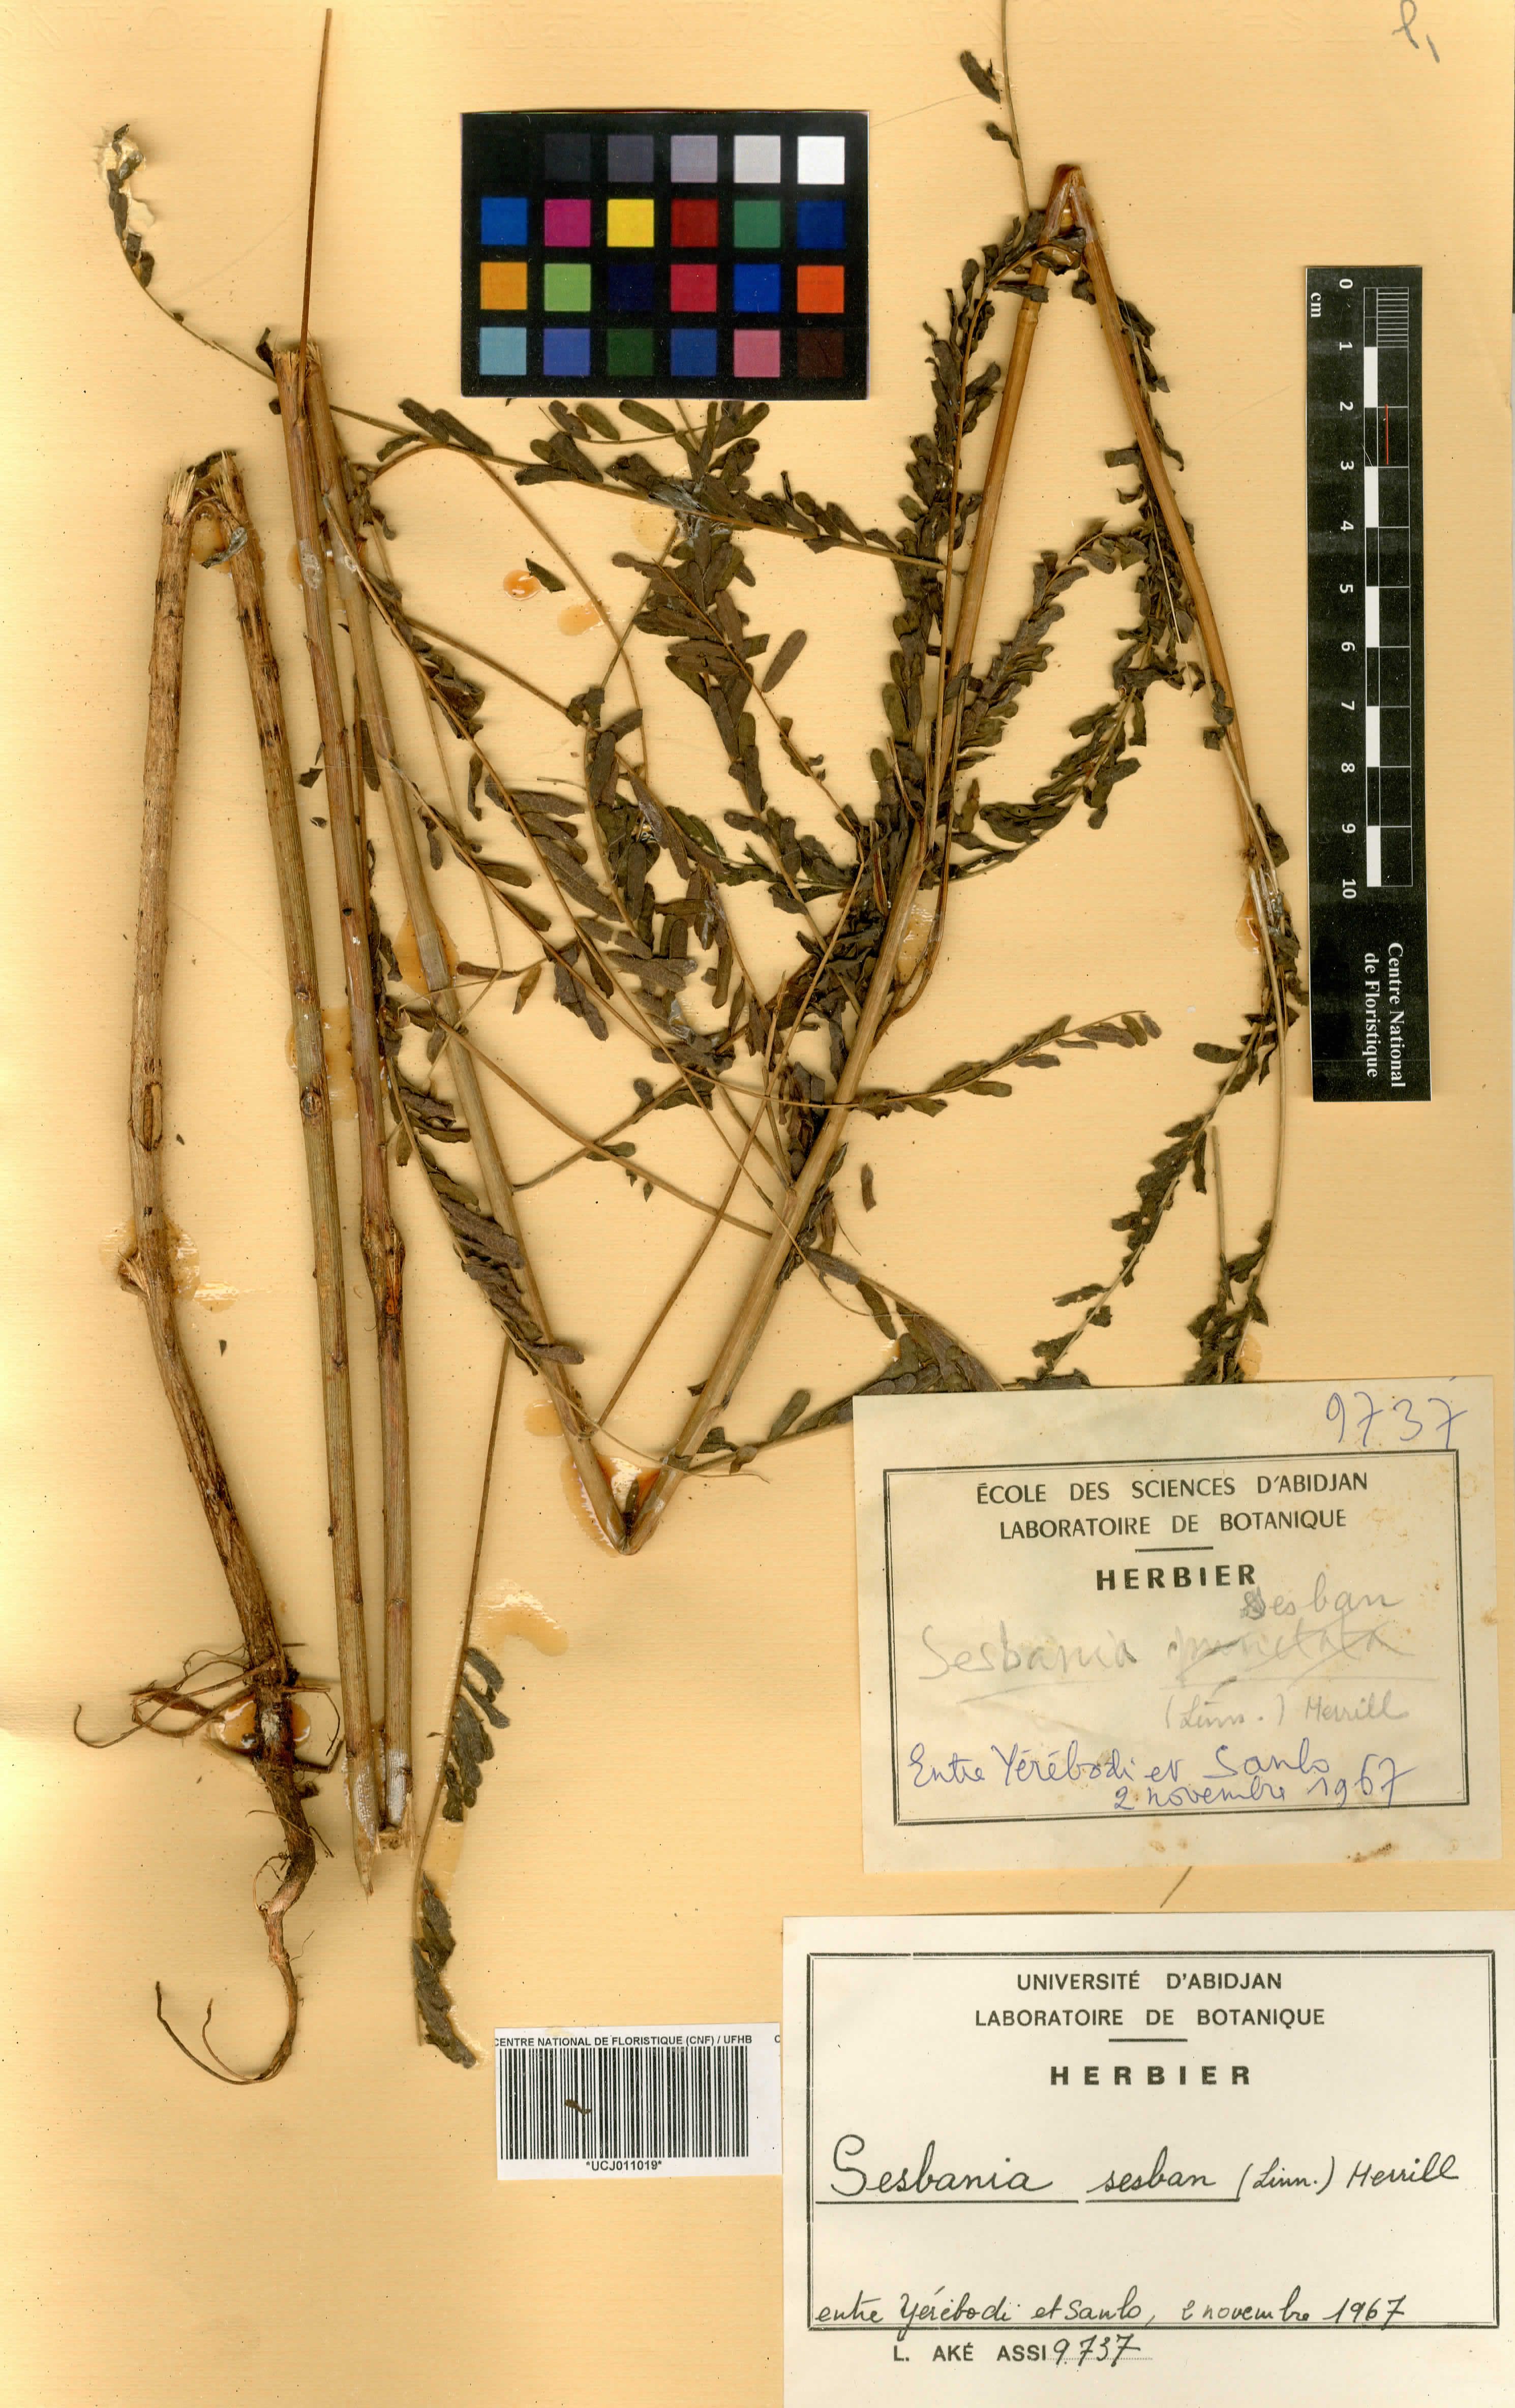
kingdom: Plantae
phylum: Tracheophyta
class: Magnoliopsida
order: Fabales
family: Fabaceae
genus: Sesbania
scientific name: Sesbania sesban
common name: Egyptian sesban
